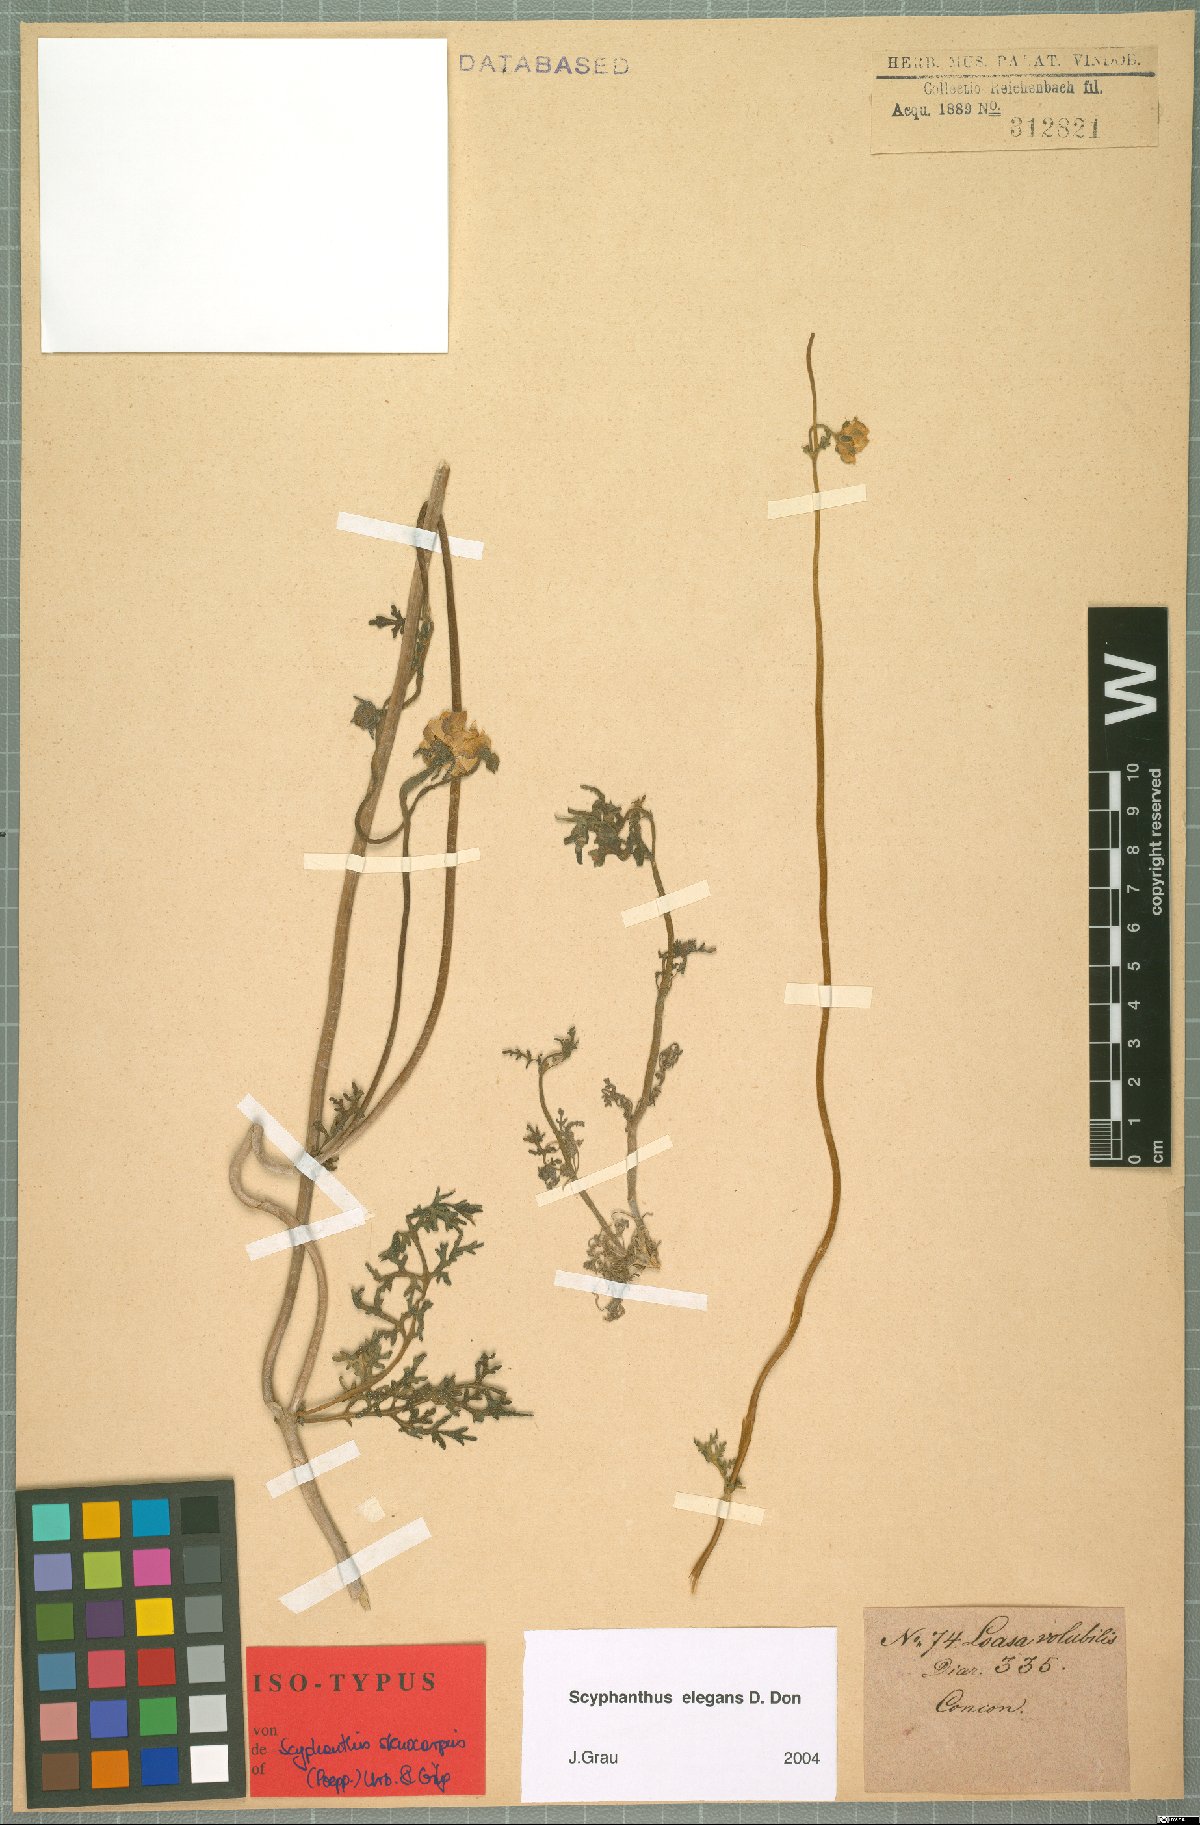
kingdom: Plantae
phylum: Tracheophyta
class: Magnoliopsida
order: Cornales
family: Loasaceae
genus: Scyphanthus
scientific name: Scyphanthus elegans
